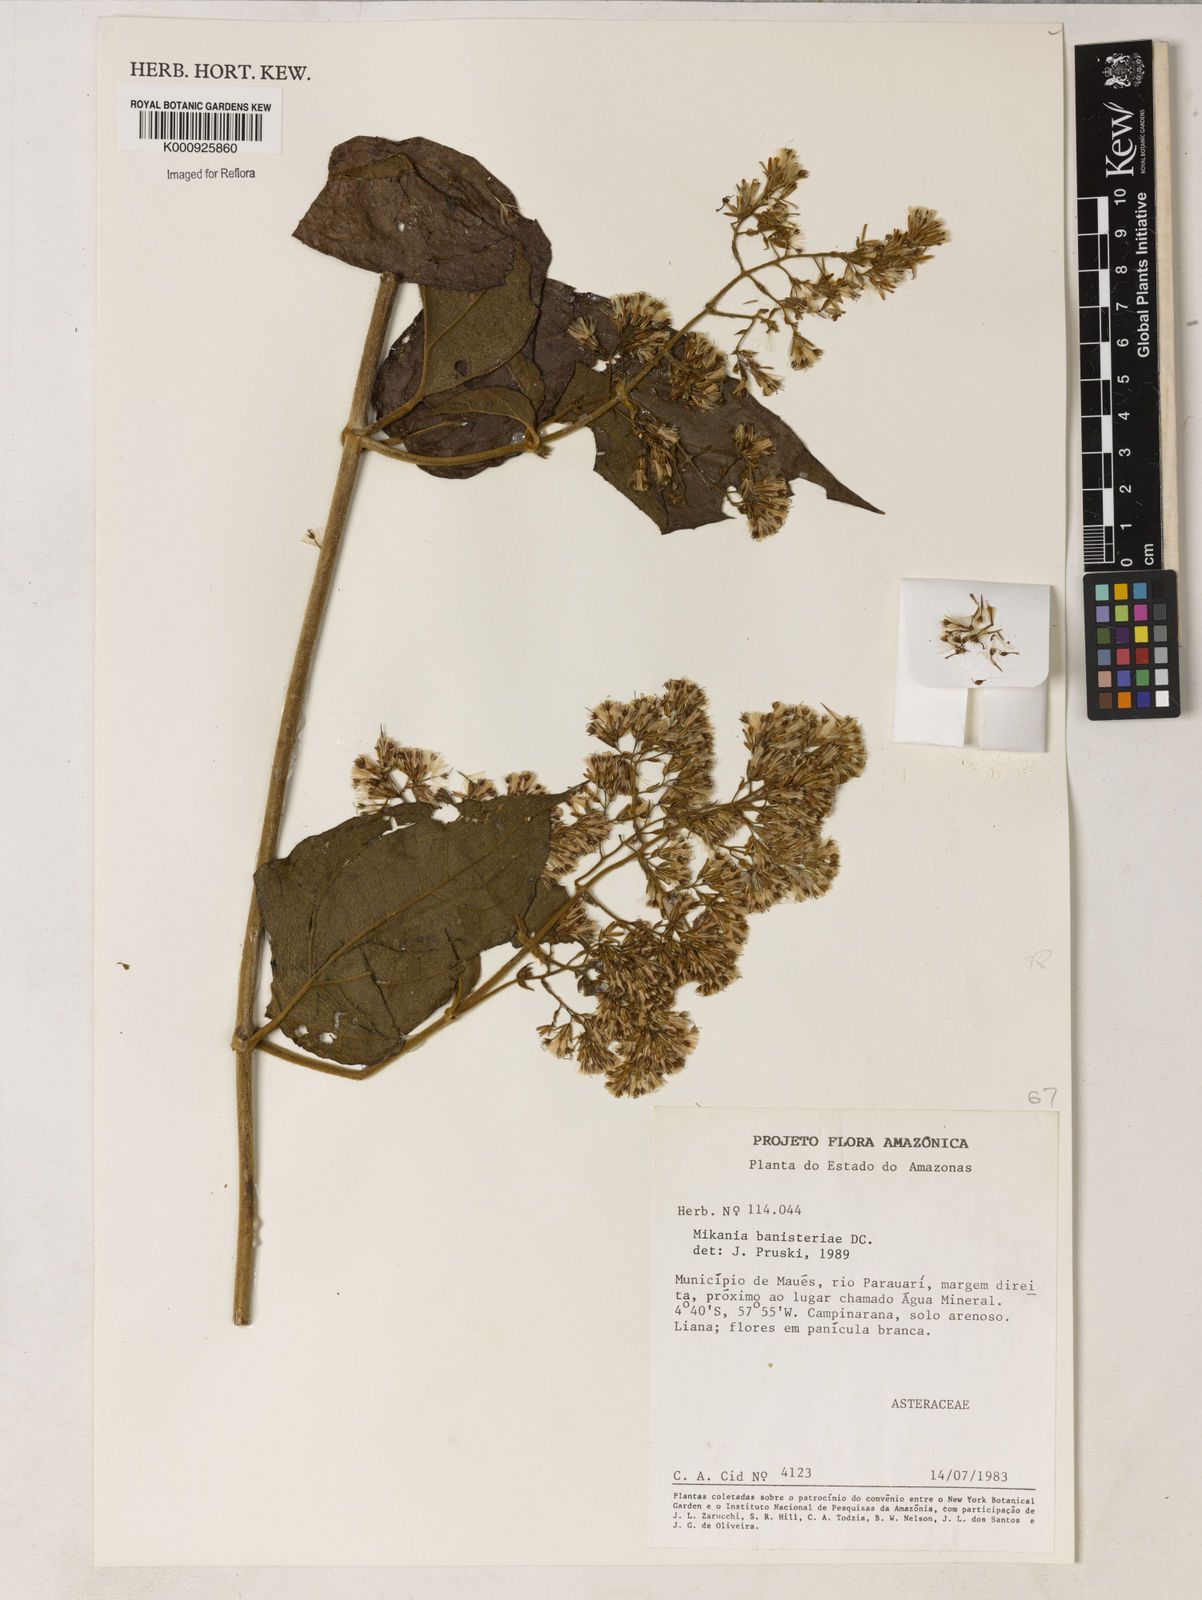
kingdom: Plantae
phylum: Tracheophyta
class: Magnoliopsida
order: Asterales
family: Asteraceae
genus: Mikania
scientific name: Mikania banisteriae
